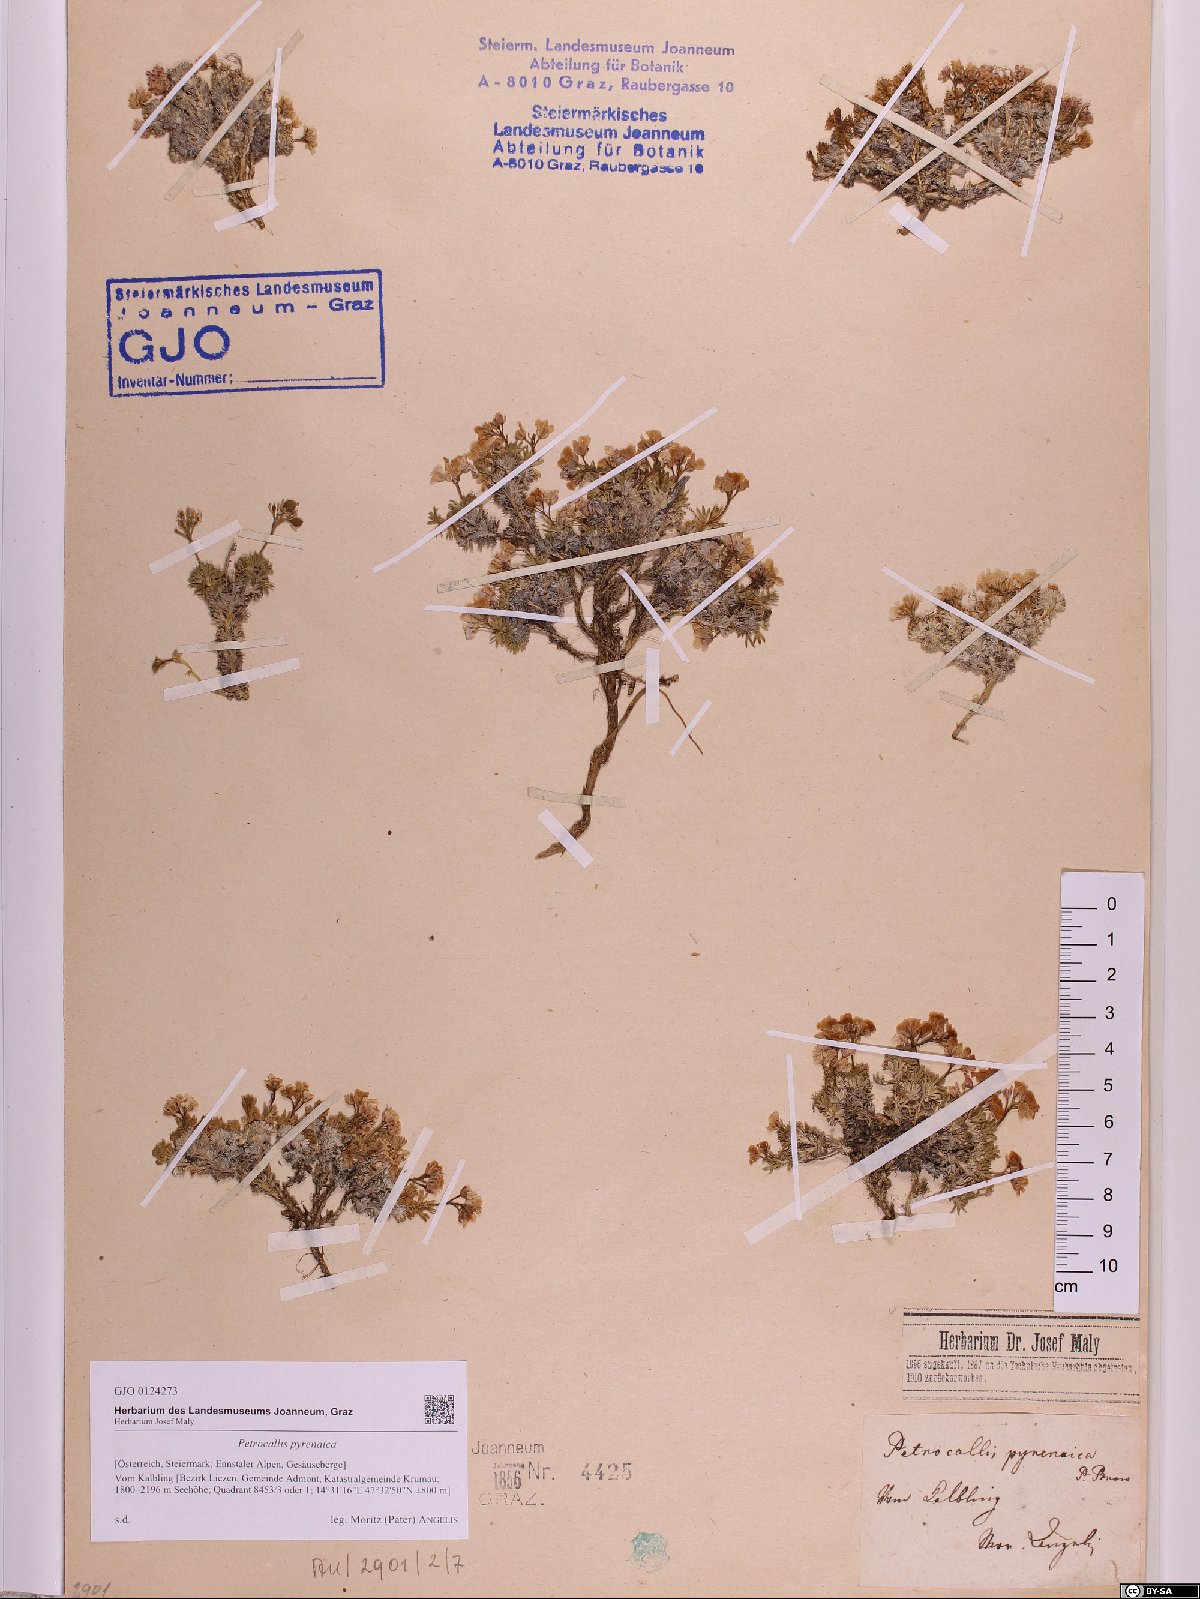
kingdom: Plantae
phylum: Tracheophyta
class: Magnoliopsida
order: Brassicales
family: Brassicaceae
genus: Petrocallis
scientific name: Petrocallis pyrenaica
